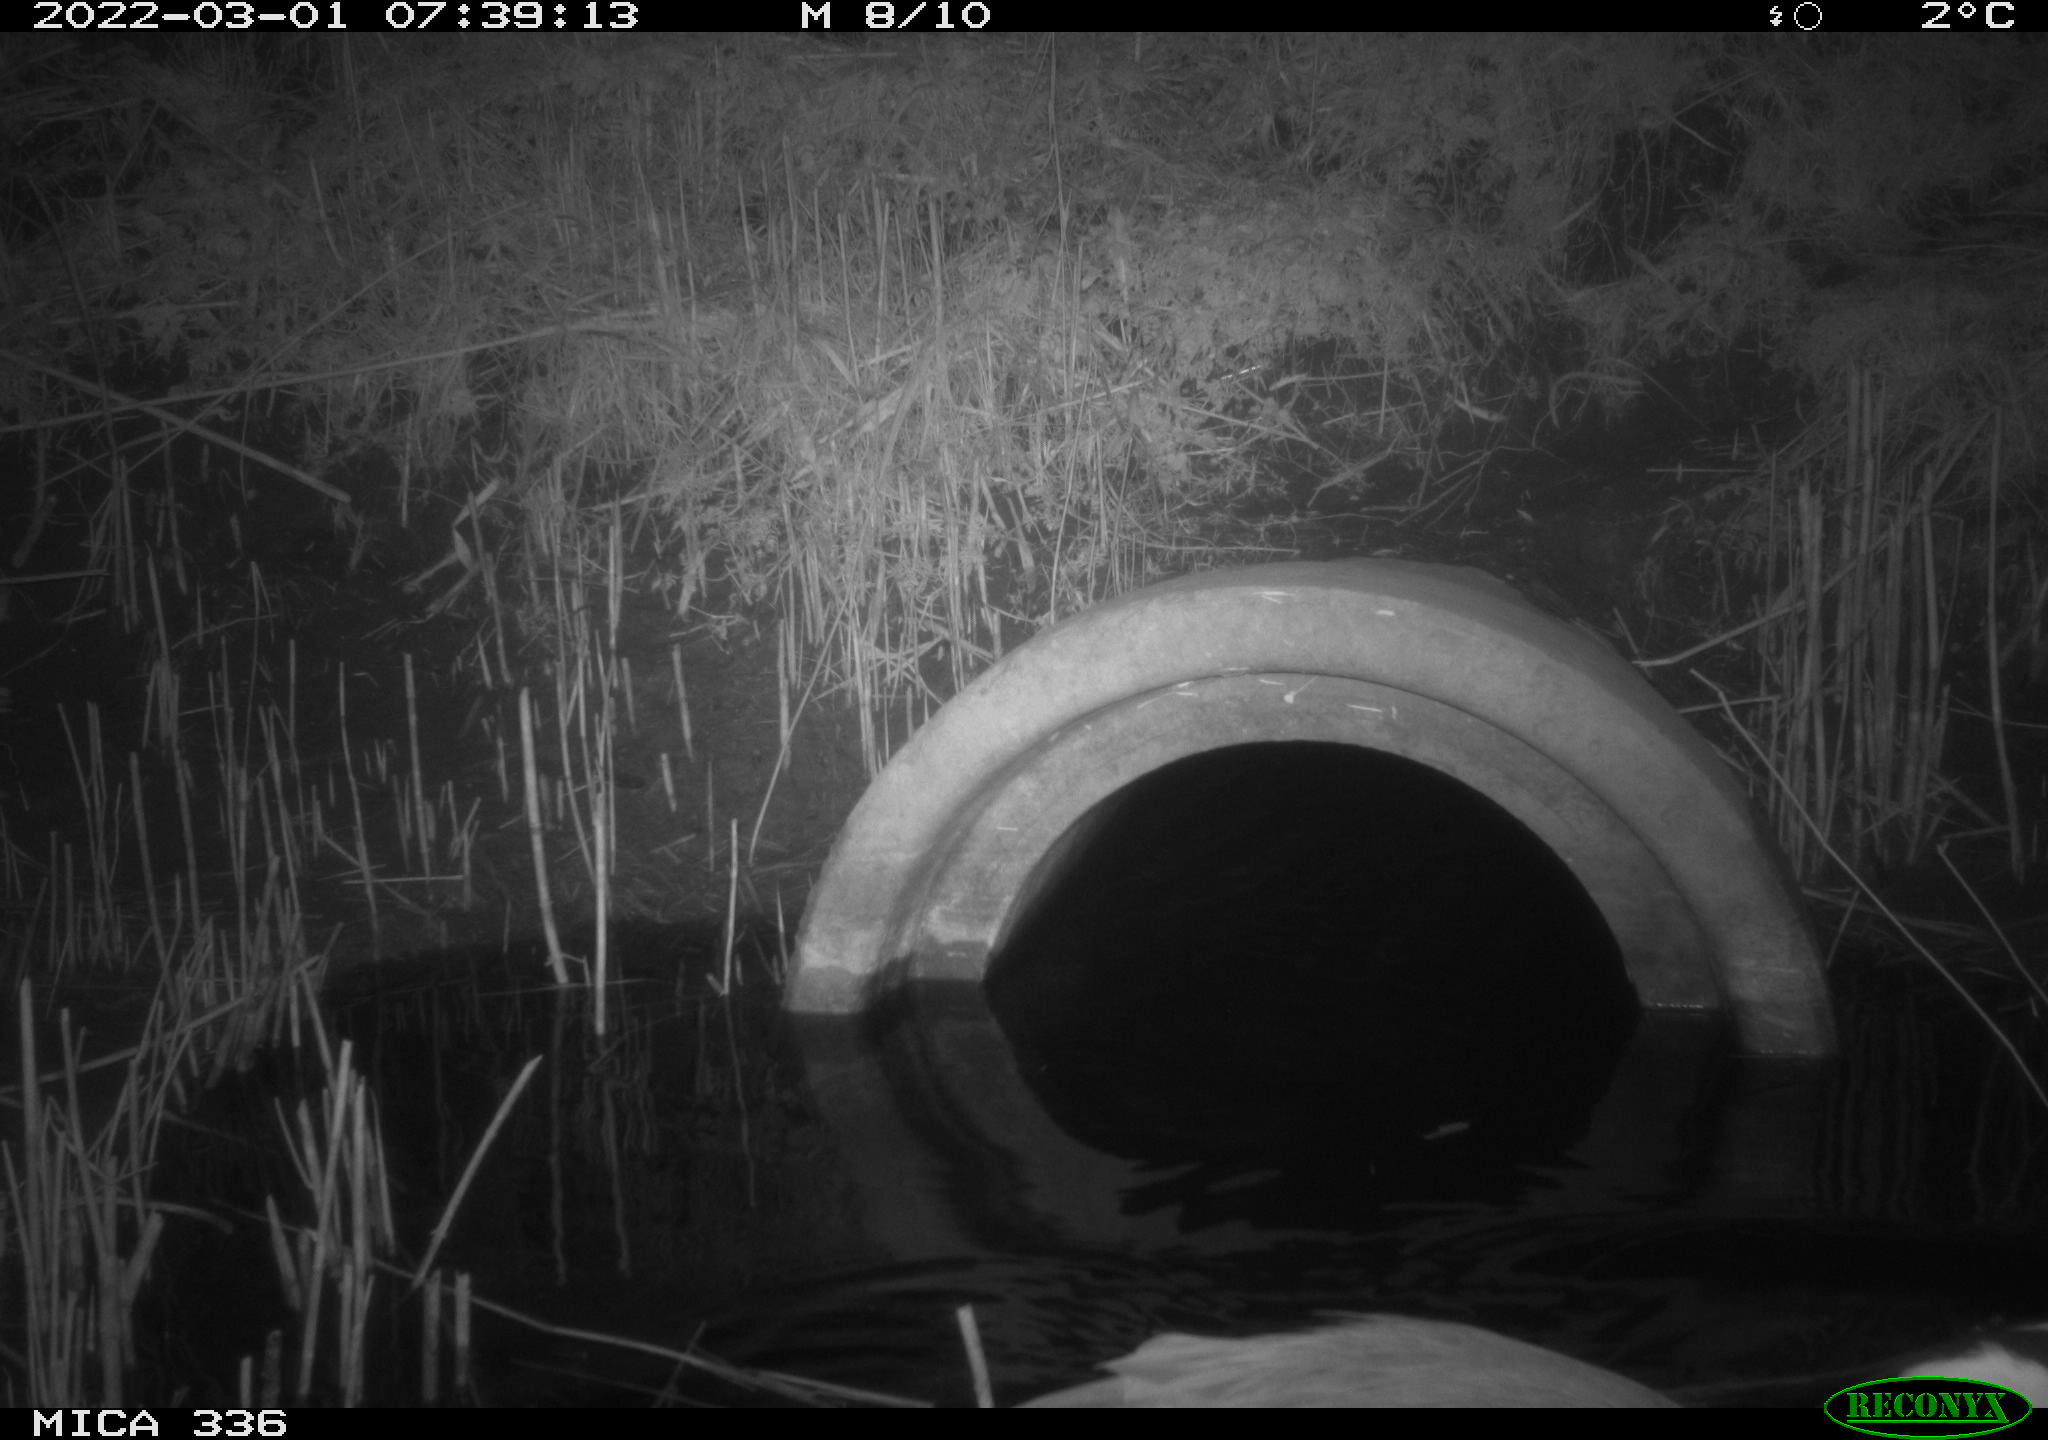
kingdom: Animalia
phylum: Chordata
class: Aves
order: Pelecaniformes
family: Ardeidae
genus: Ardea
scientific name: Ardea cinerea
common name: Grey heron
